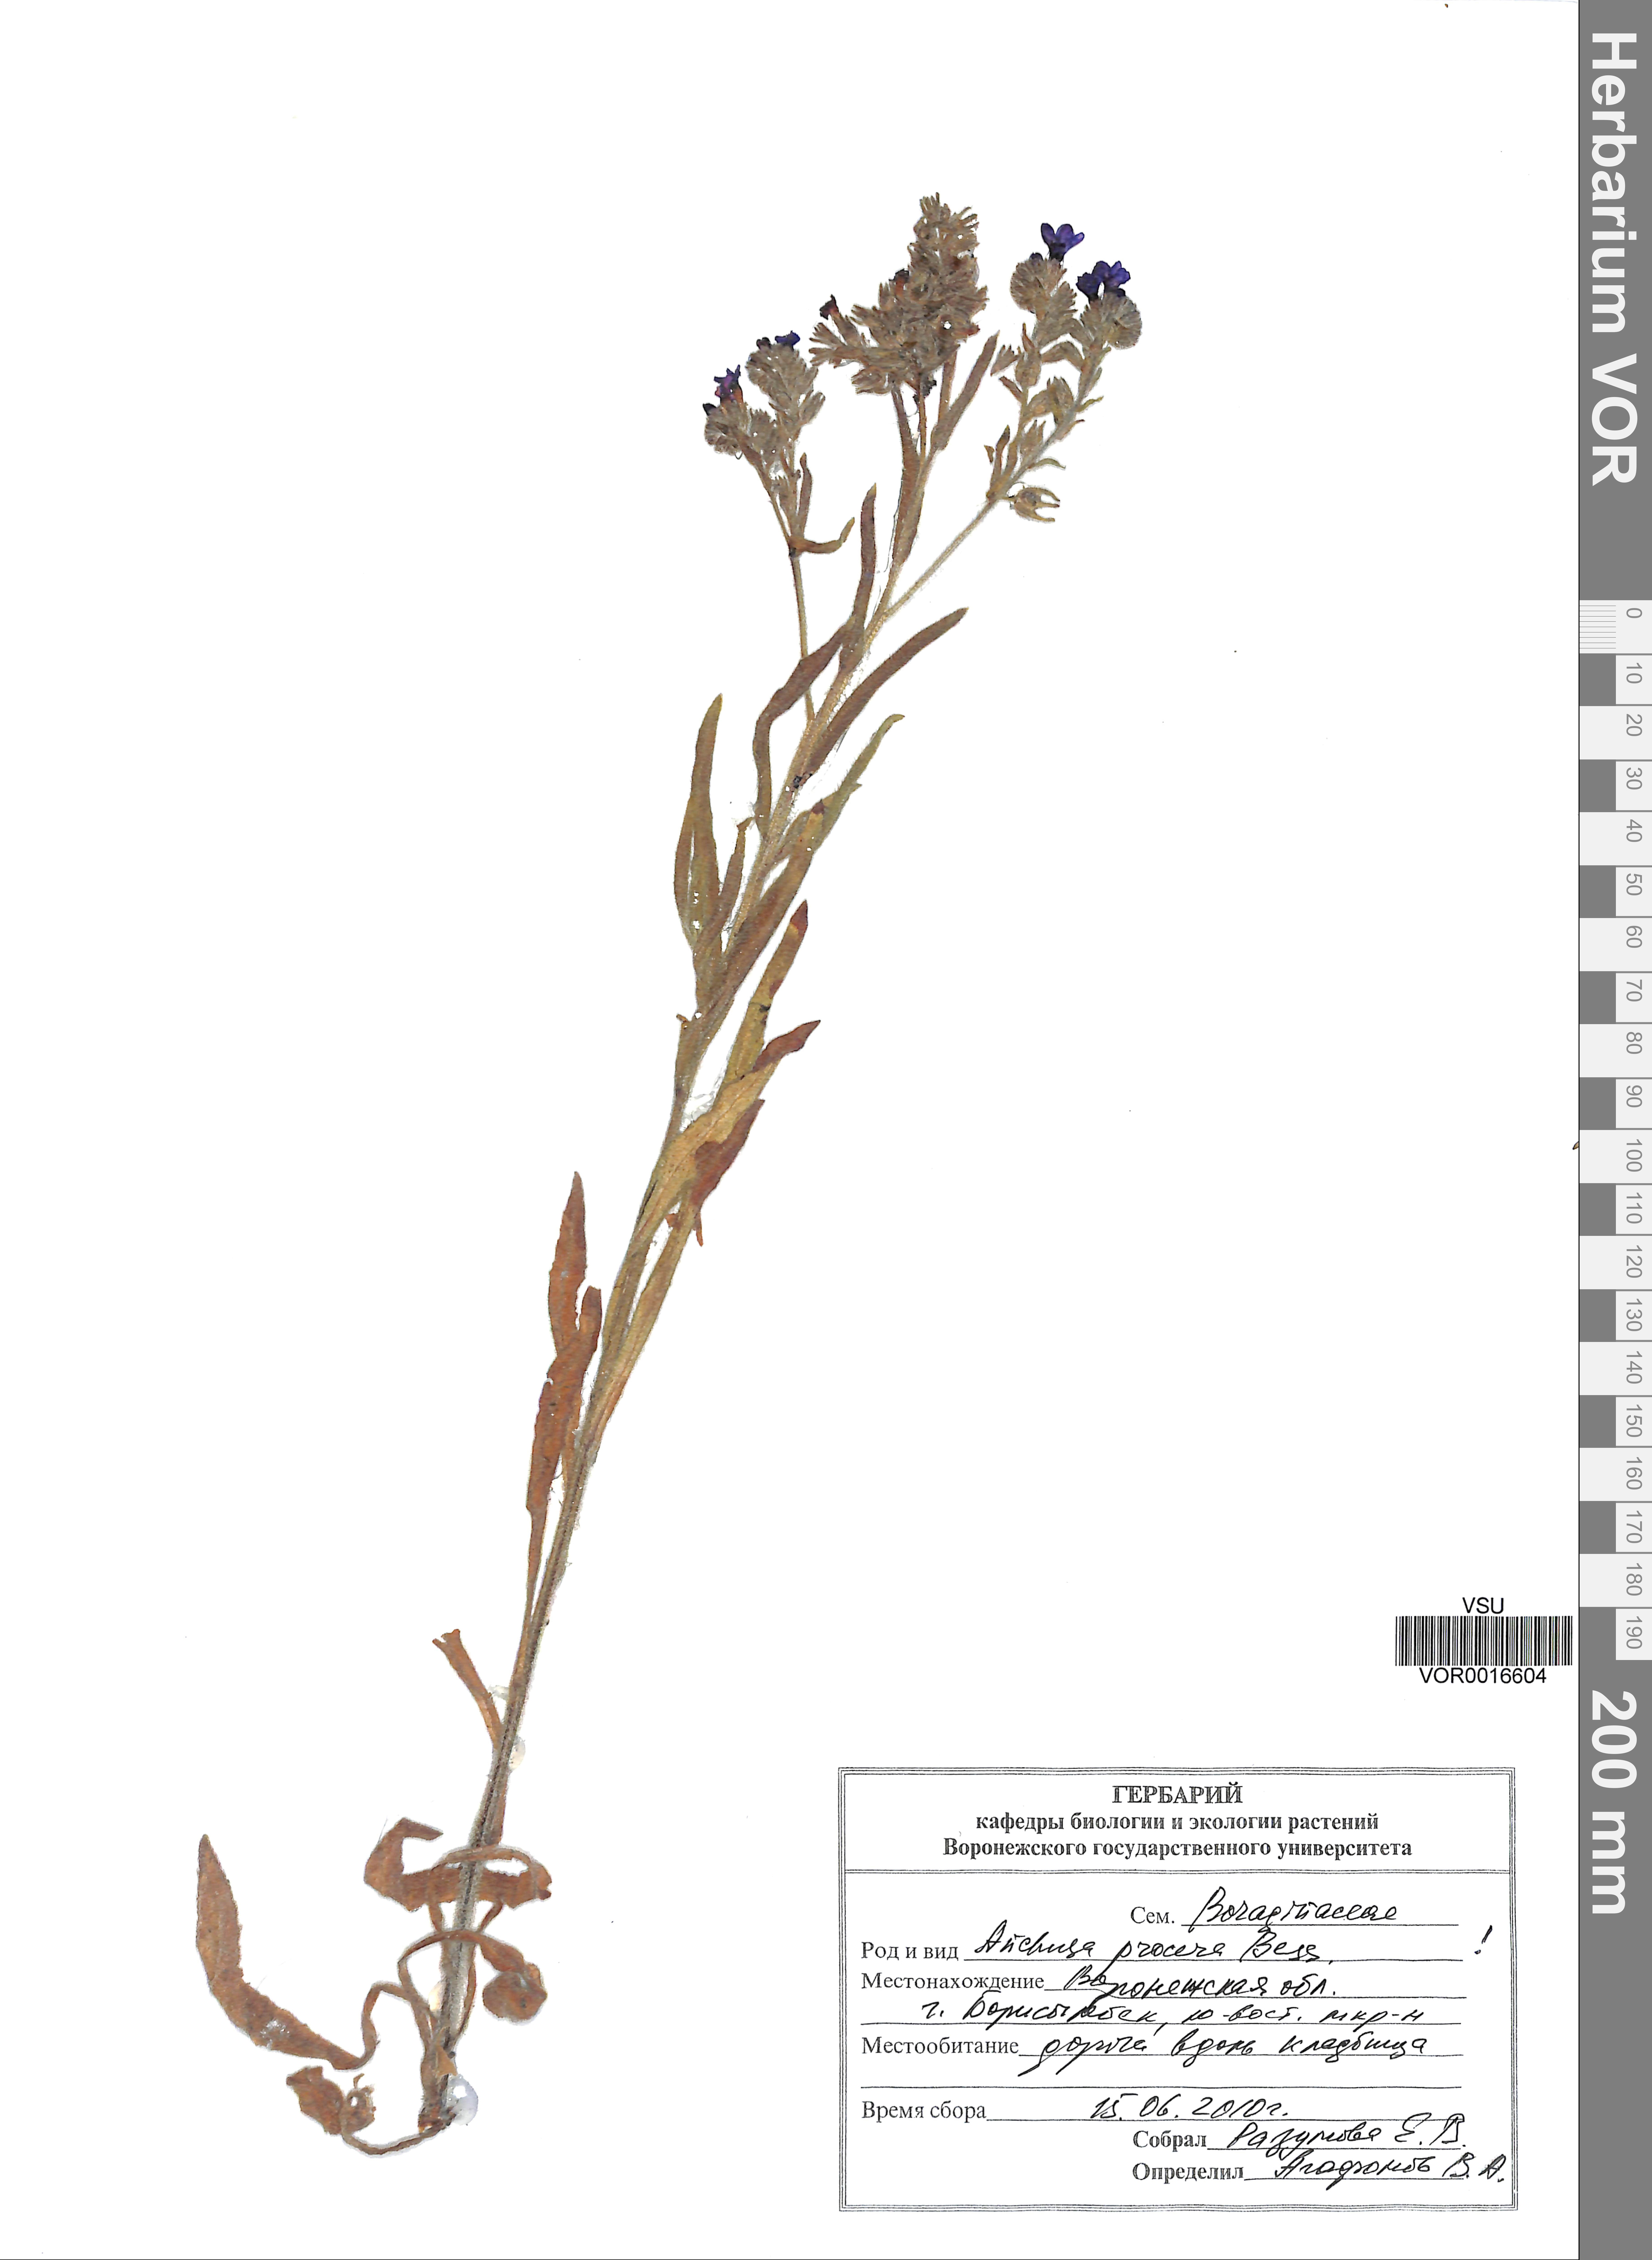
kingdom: Plantae
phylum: Tracheophyta
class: Magnoliopsida
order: Boraginales
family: Boraginaceae
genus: Anchusa
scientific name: Anchusa procera
